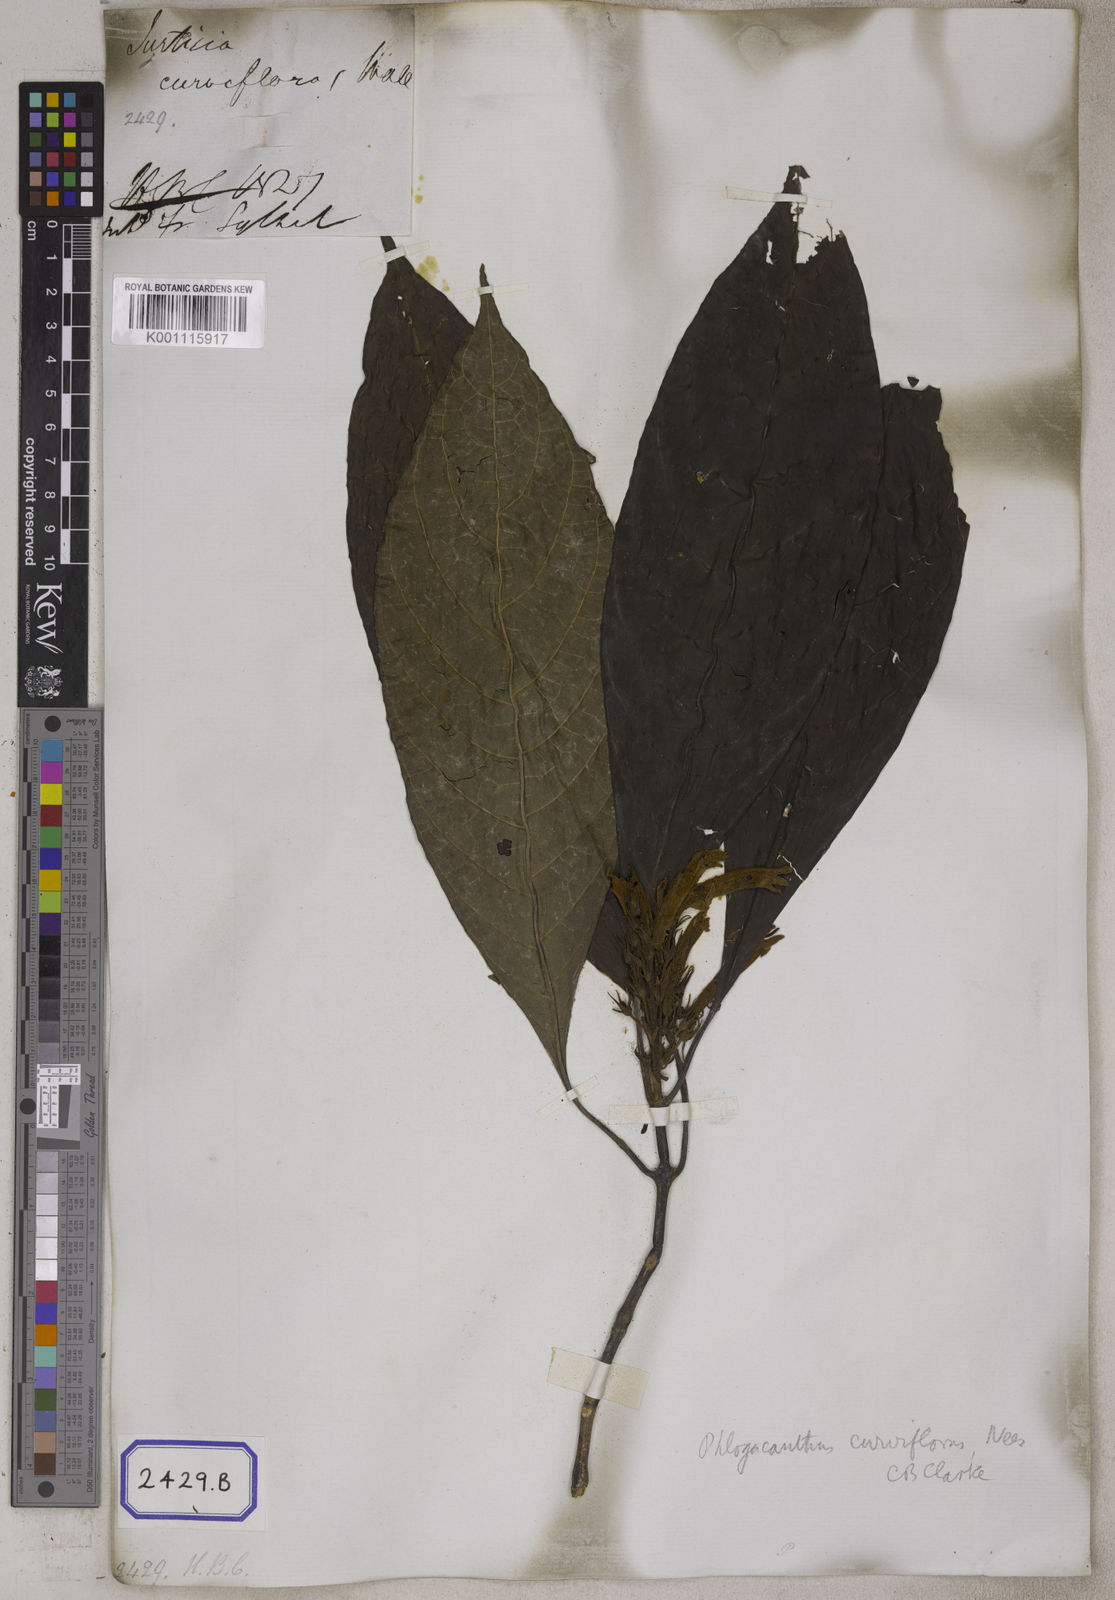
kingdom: Plantae
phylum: Tracheophyta
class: Magnoliopsida
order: Lamiales
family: Acanthaceae
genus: Justicia
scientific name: Justicia
